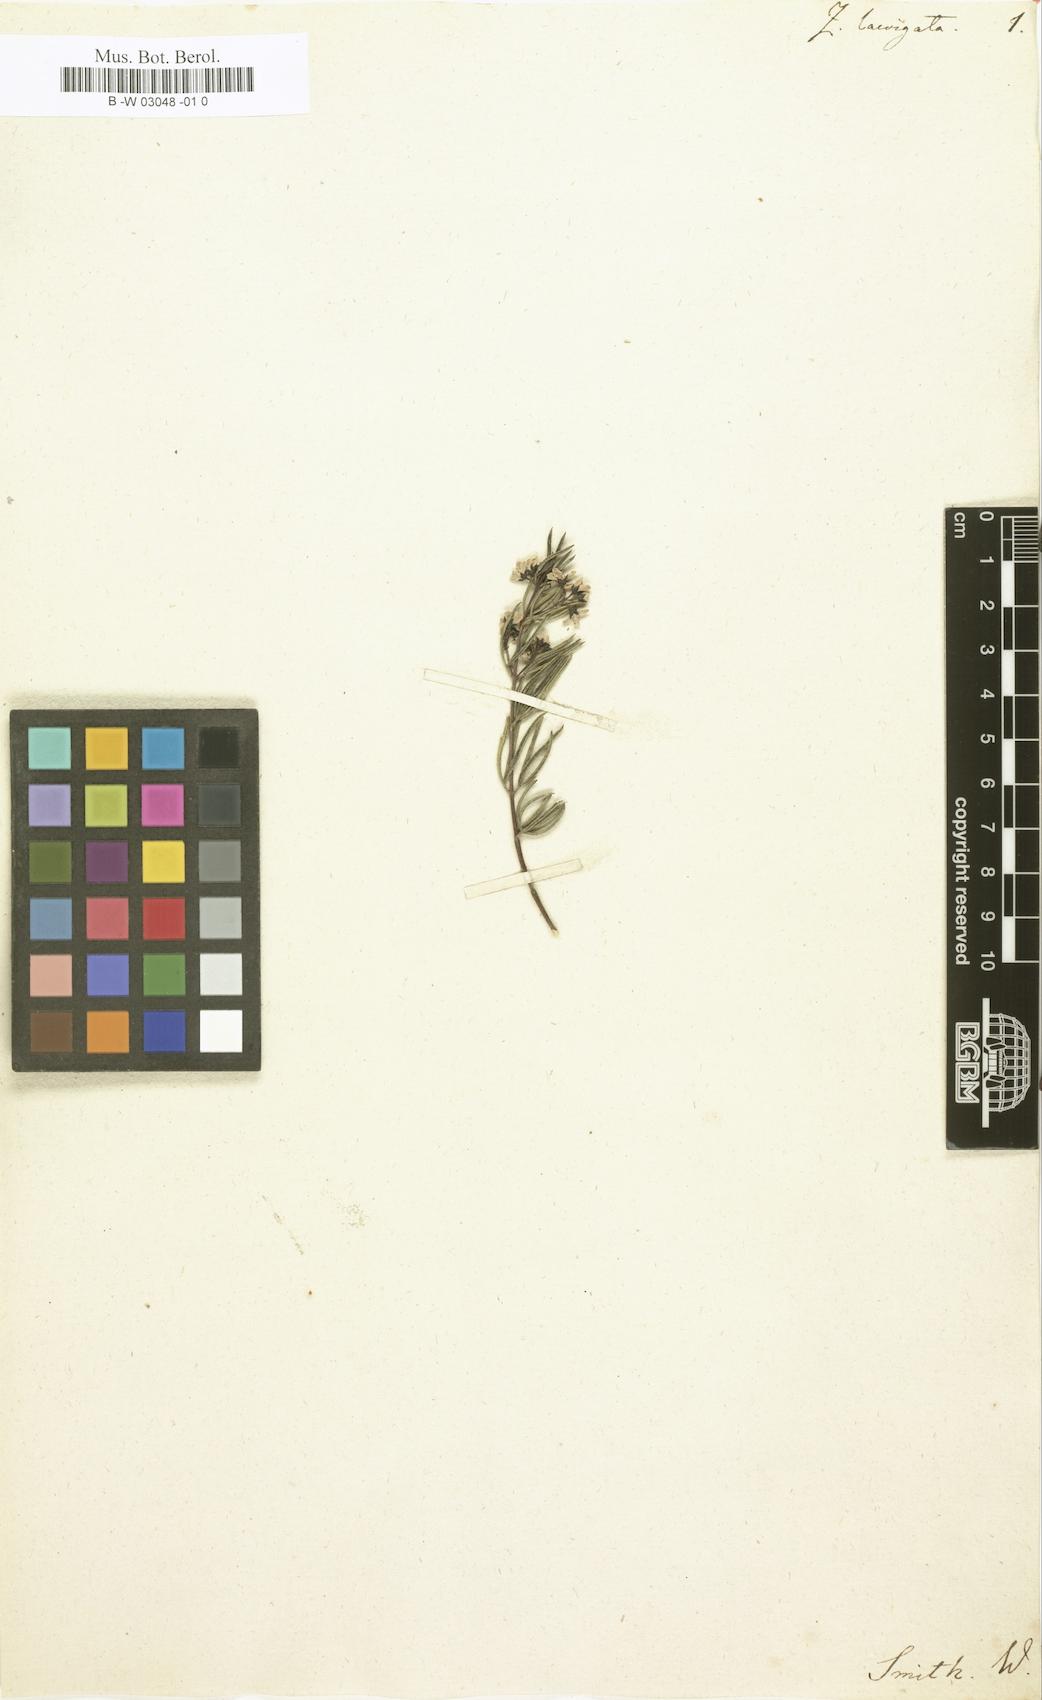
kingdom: Plantae
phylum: Tracheophyta
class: Magnoliopsida
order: Sapindales
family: Rutaceae
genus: Zieria
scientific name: Zieria laevigata
